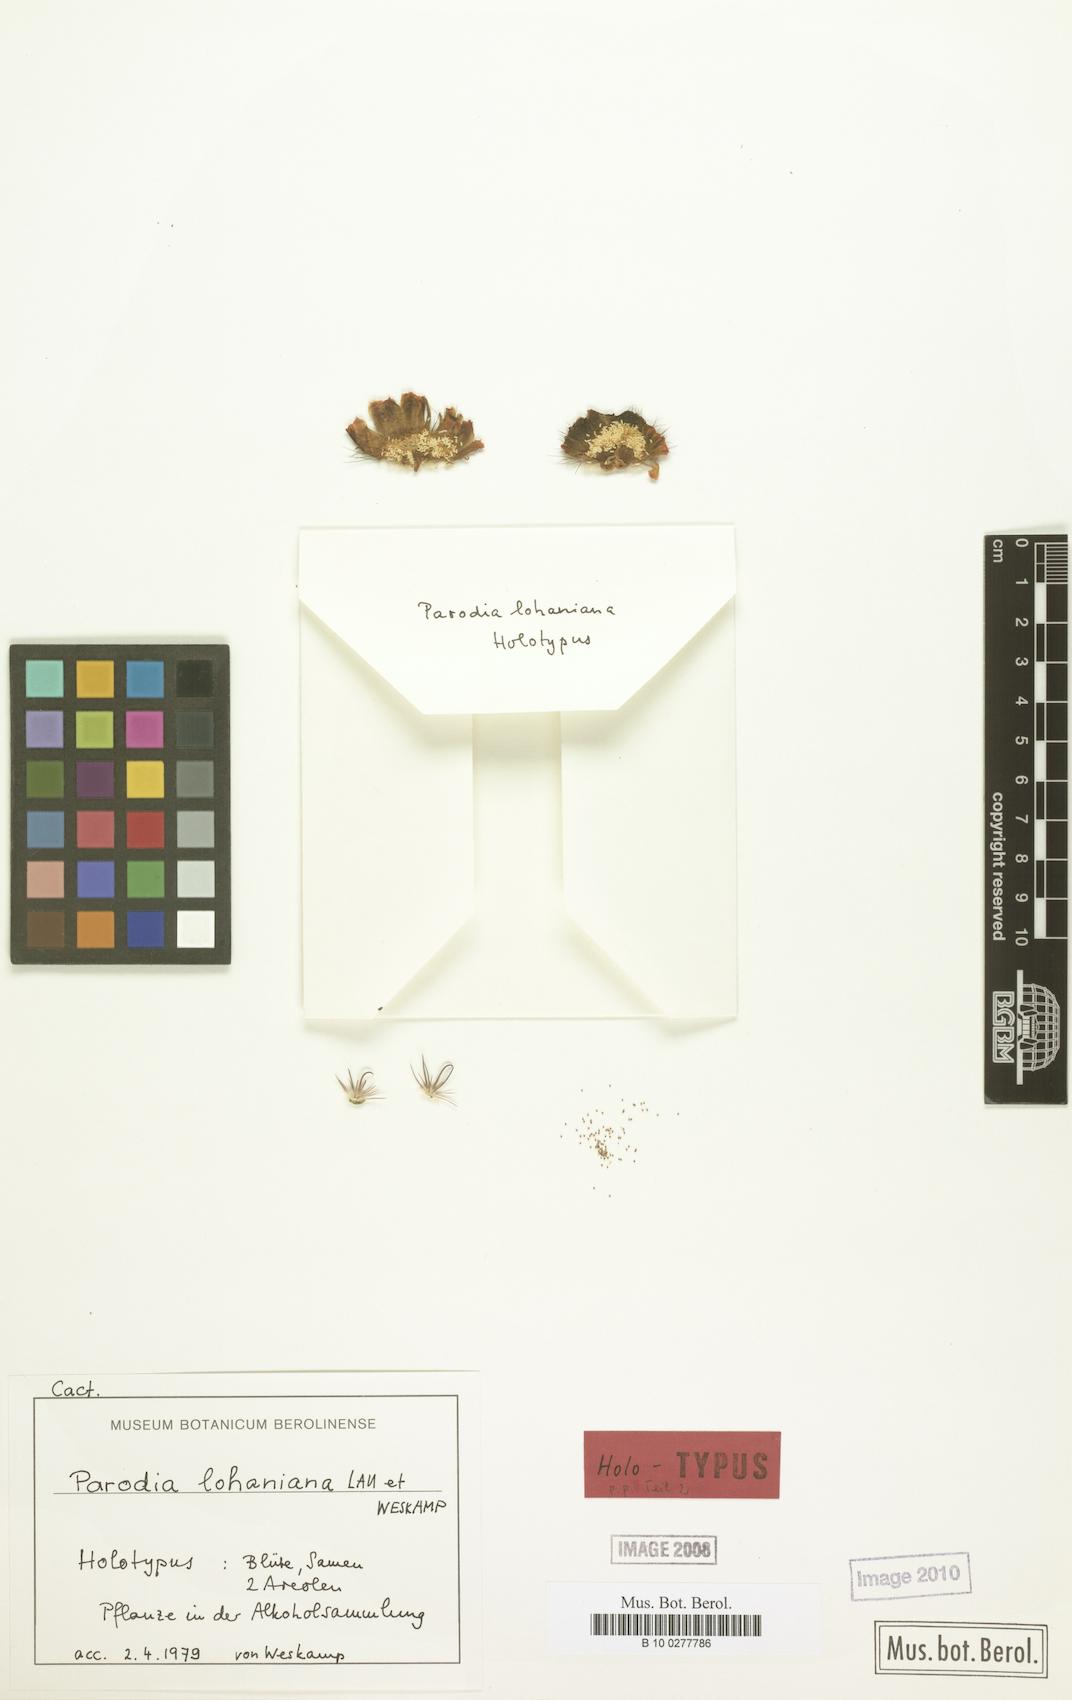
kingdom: Plantae
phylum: Tracheophyta
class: Magnoliopsida
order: Caryophyllales
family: Cactaceae
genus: Parodia
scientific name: Parodia horrida
